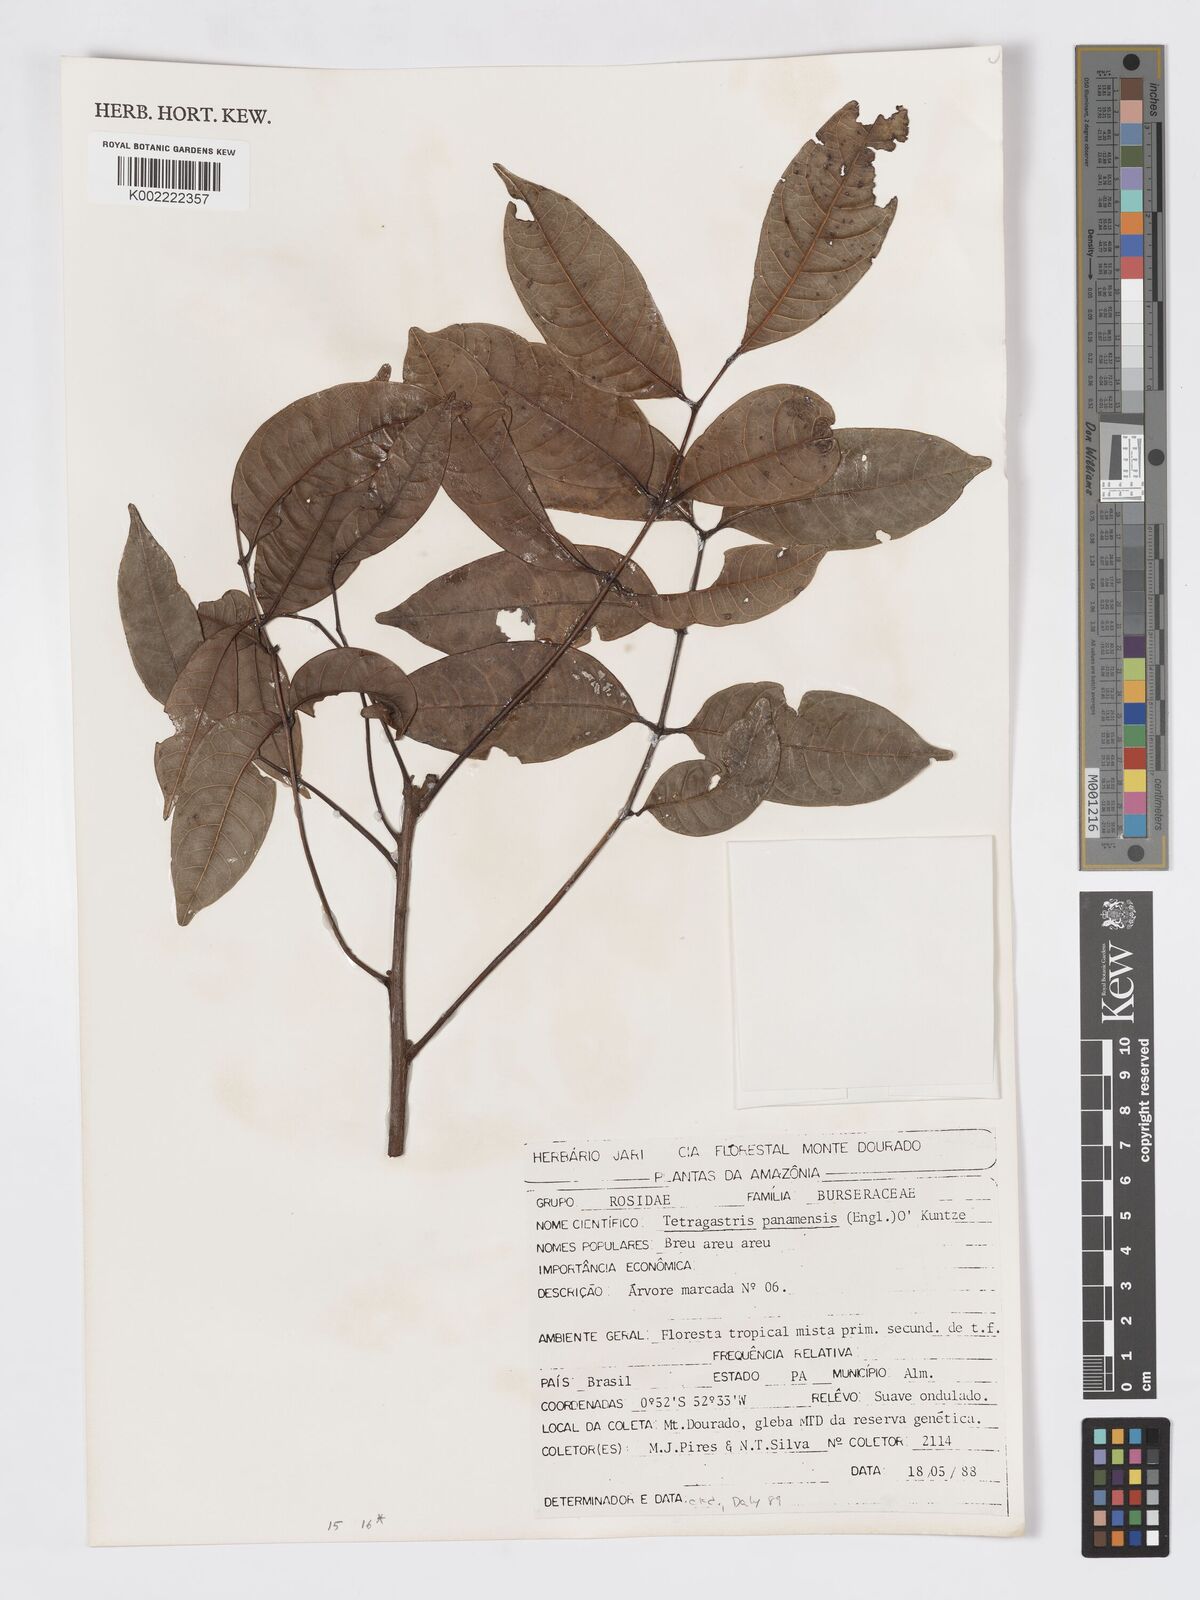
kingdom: Plantae
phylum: Tracheophyta
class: Magnoliopsida
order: Sapindales
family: Burseraceae
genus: Tetragastris
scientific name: Tetragastris panamensis
